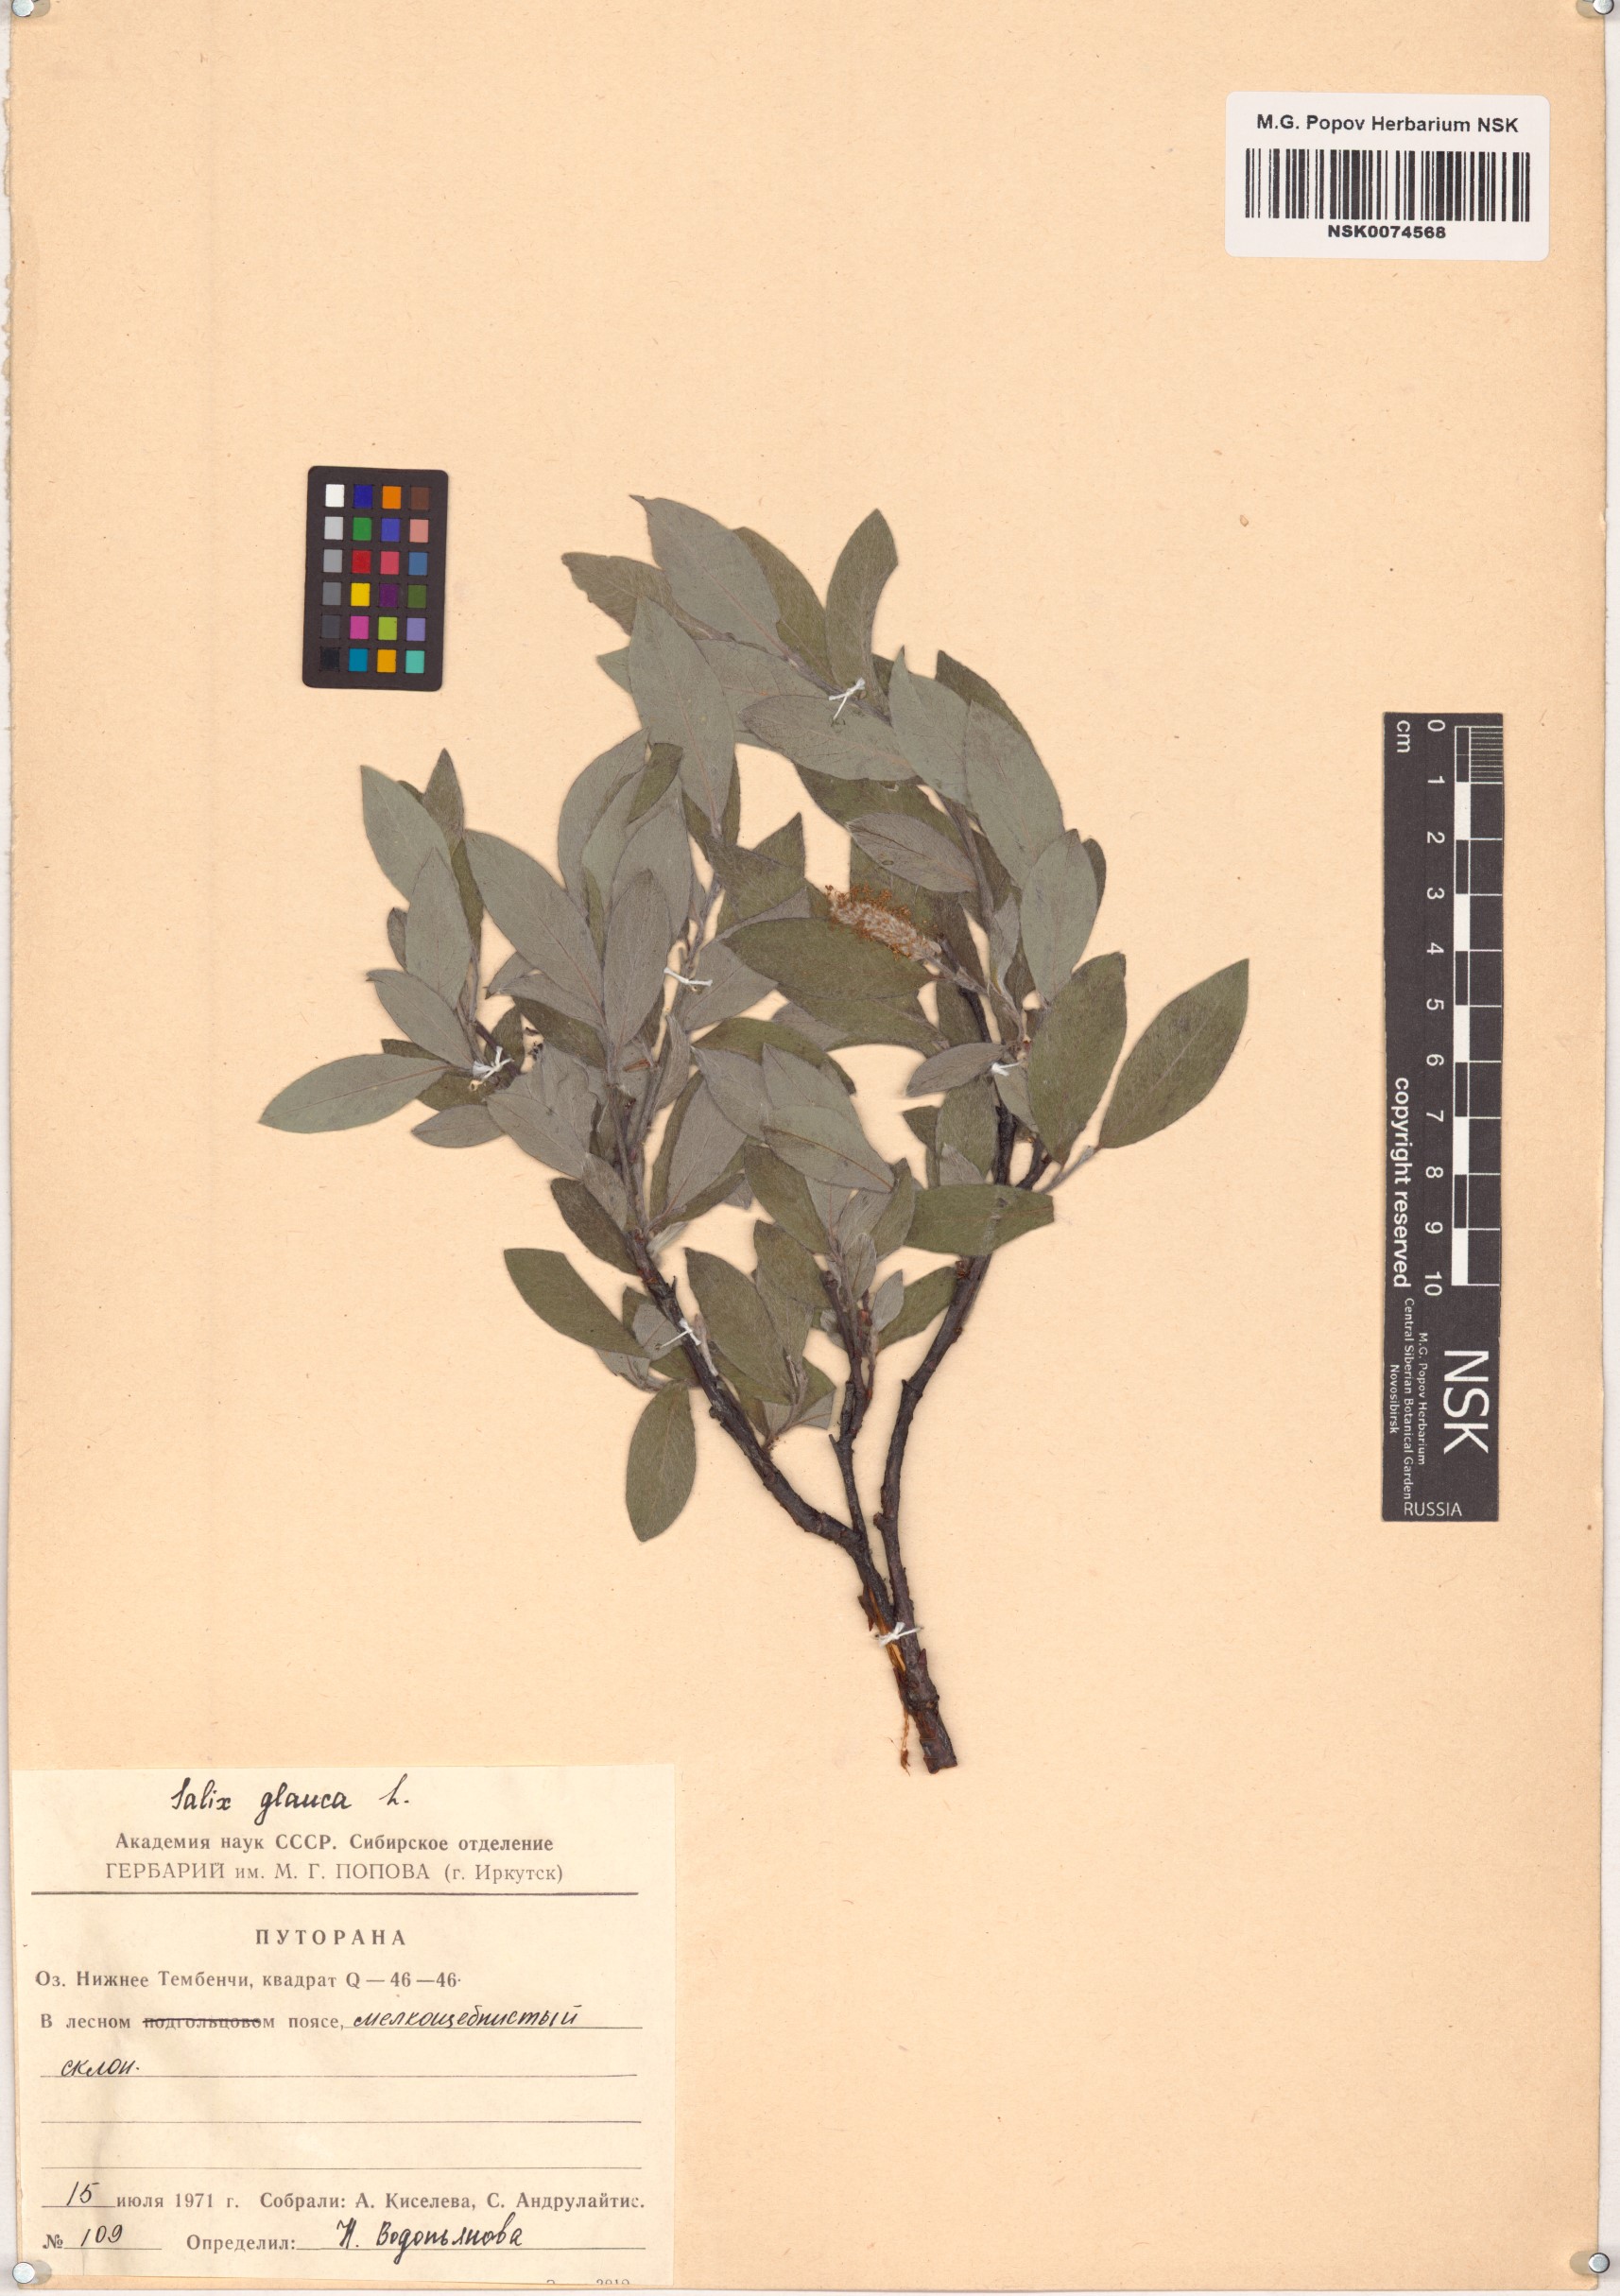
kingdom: Plantae
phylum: Tracheophyta
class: Magnoliopsida
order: Malpighiales
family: Salicaceae
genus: Salix
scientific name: Salix glauca
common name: Glaucous willow
